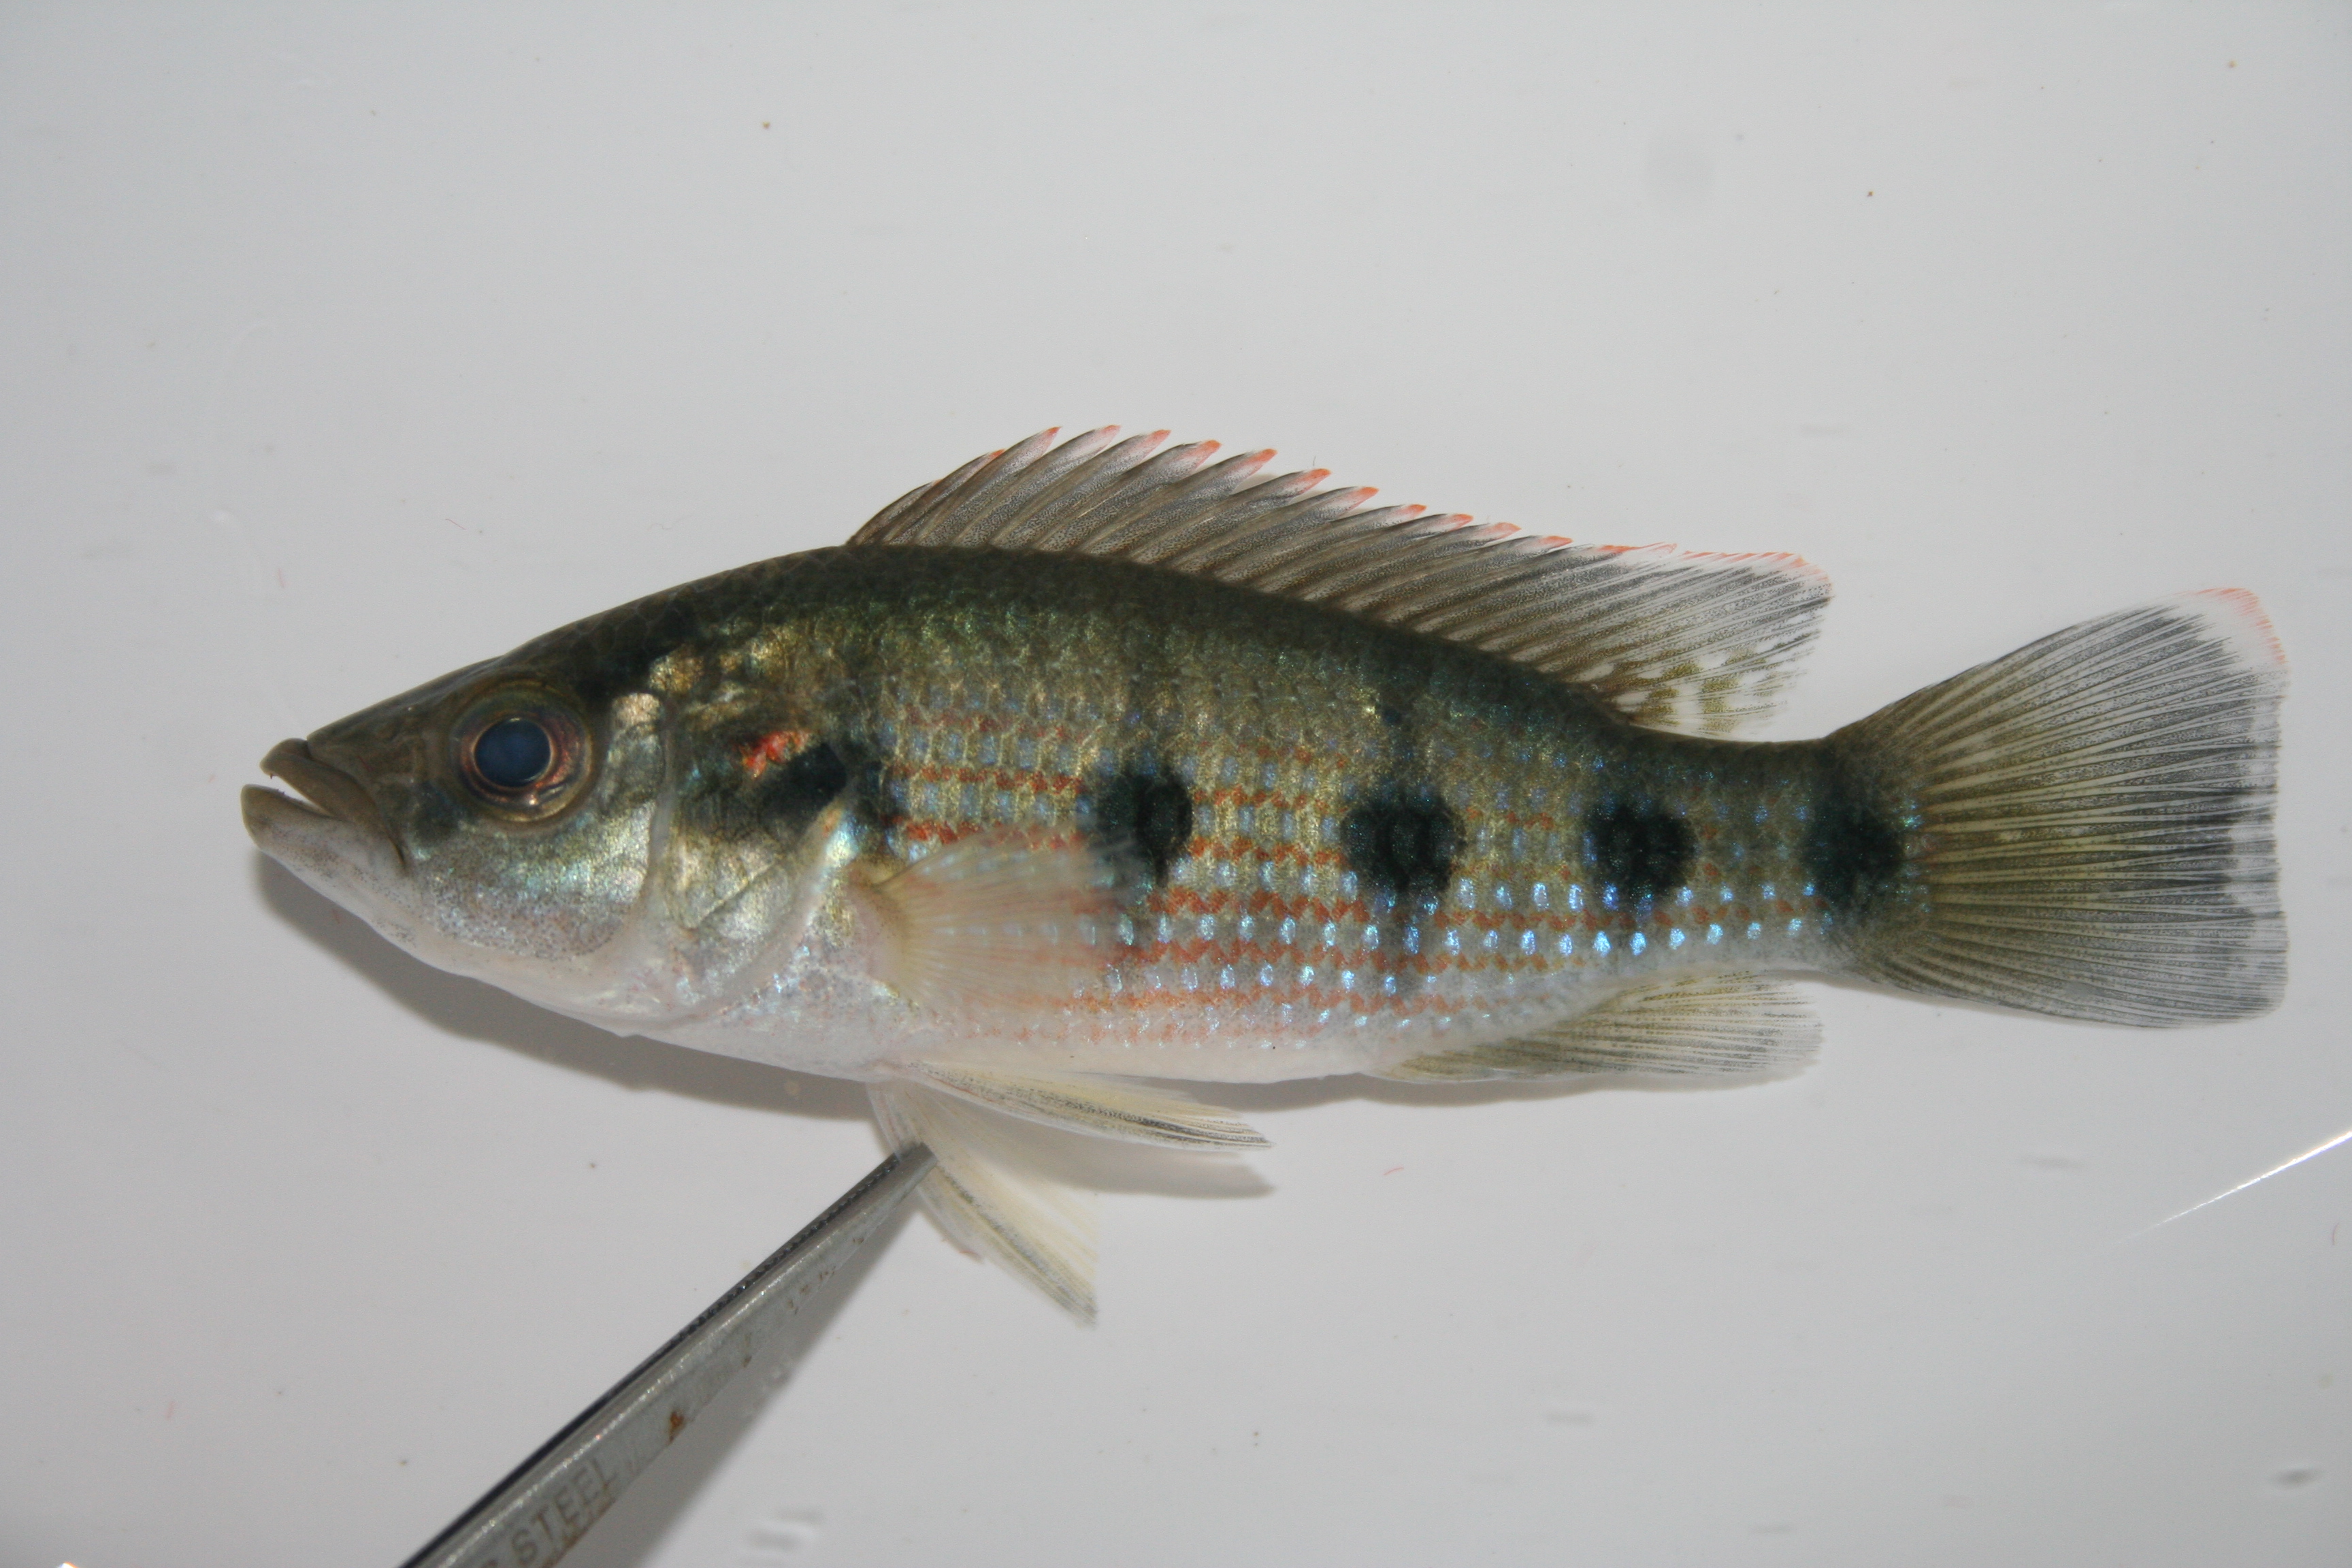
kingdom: Animalia
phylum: Chordata
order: Perciformes
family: Cichlidae
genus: Hemichromis
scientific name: Hemichromis angolensis
